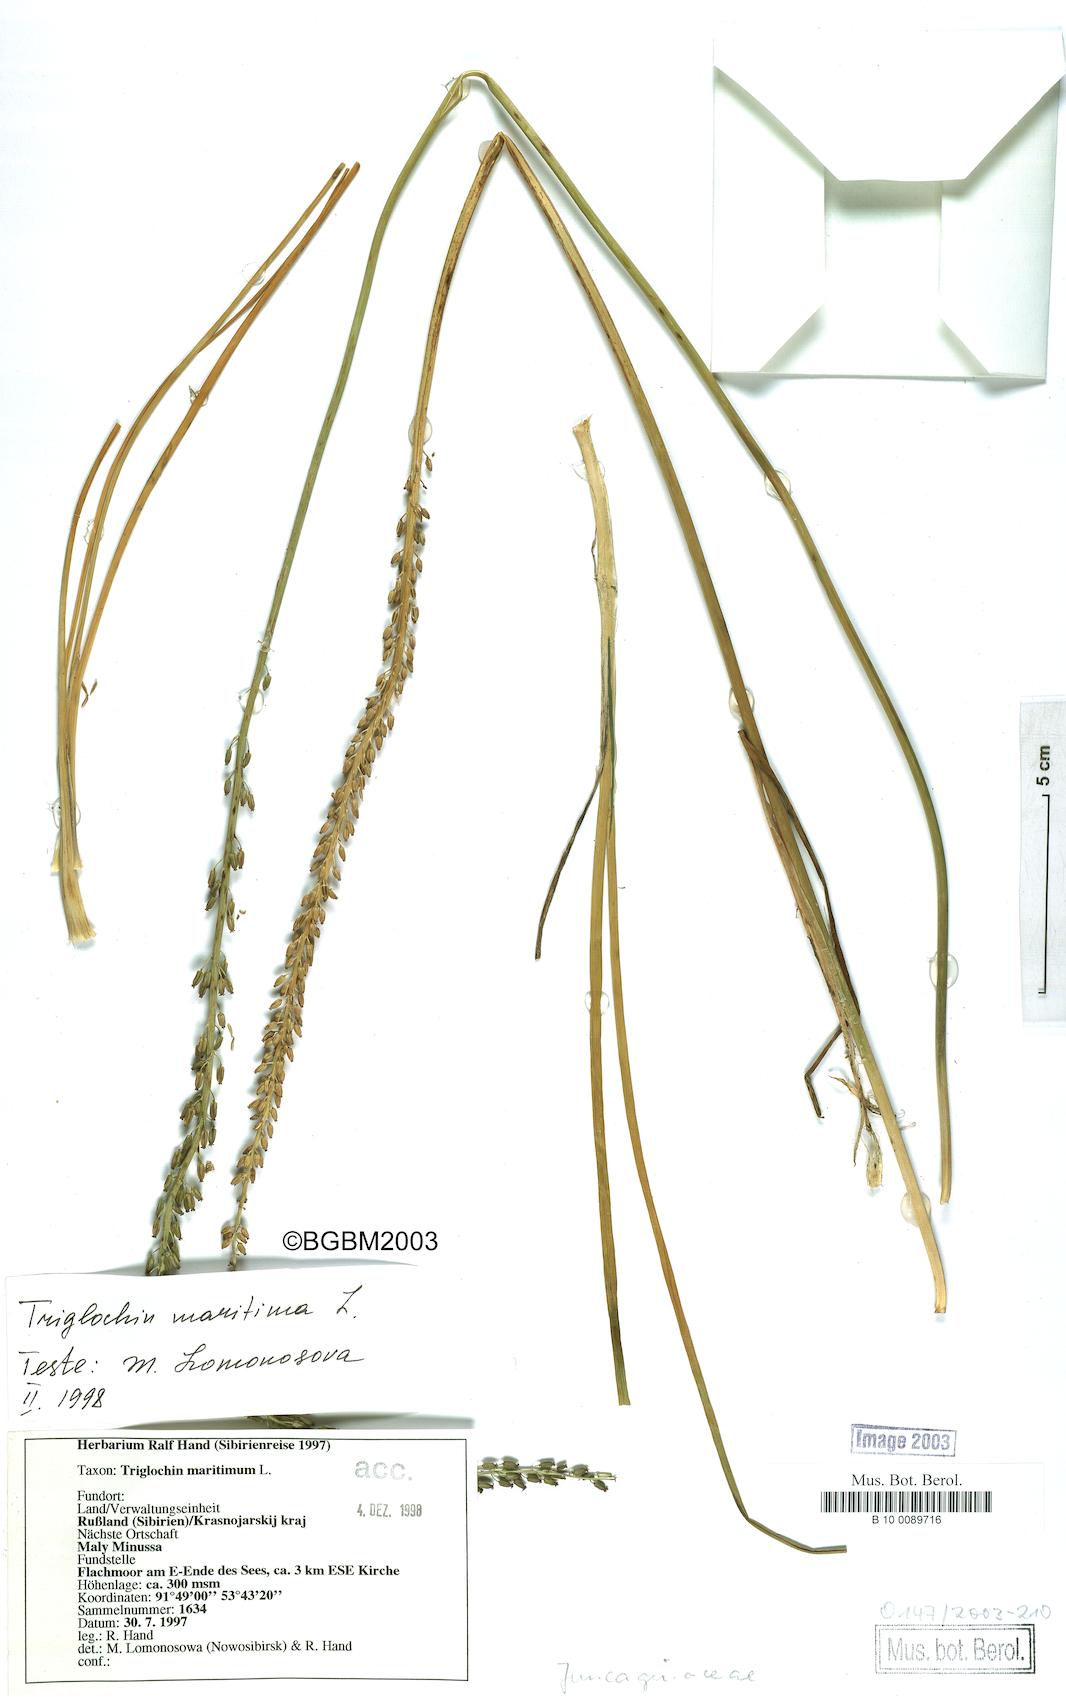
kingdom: Plantae
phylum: Tracheophyta
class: Liliopsida
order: Alismatales
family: Juncaginaceae
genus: Triglochin
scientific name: Triglochin maritima
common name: Sea arrowgrass
